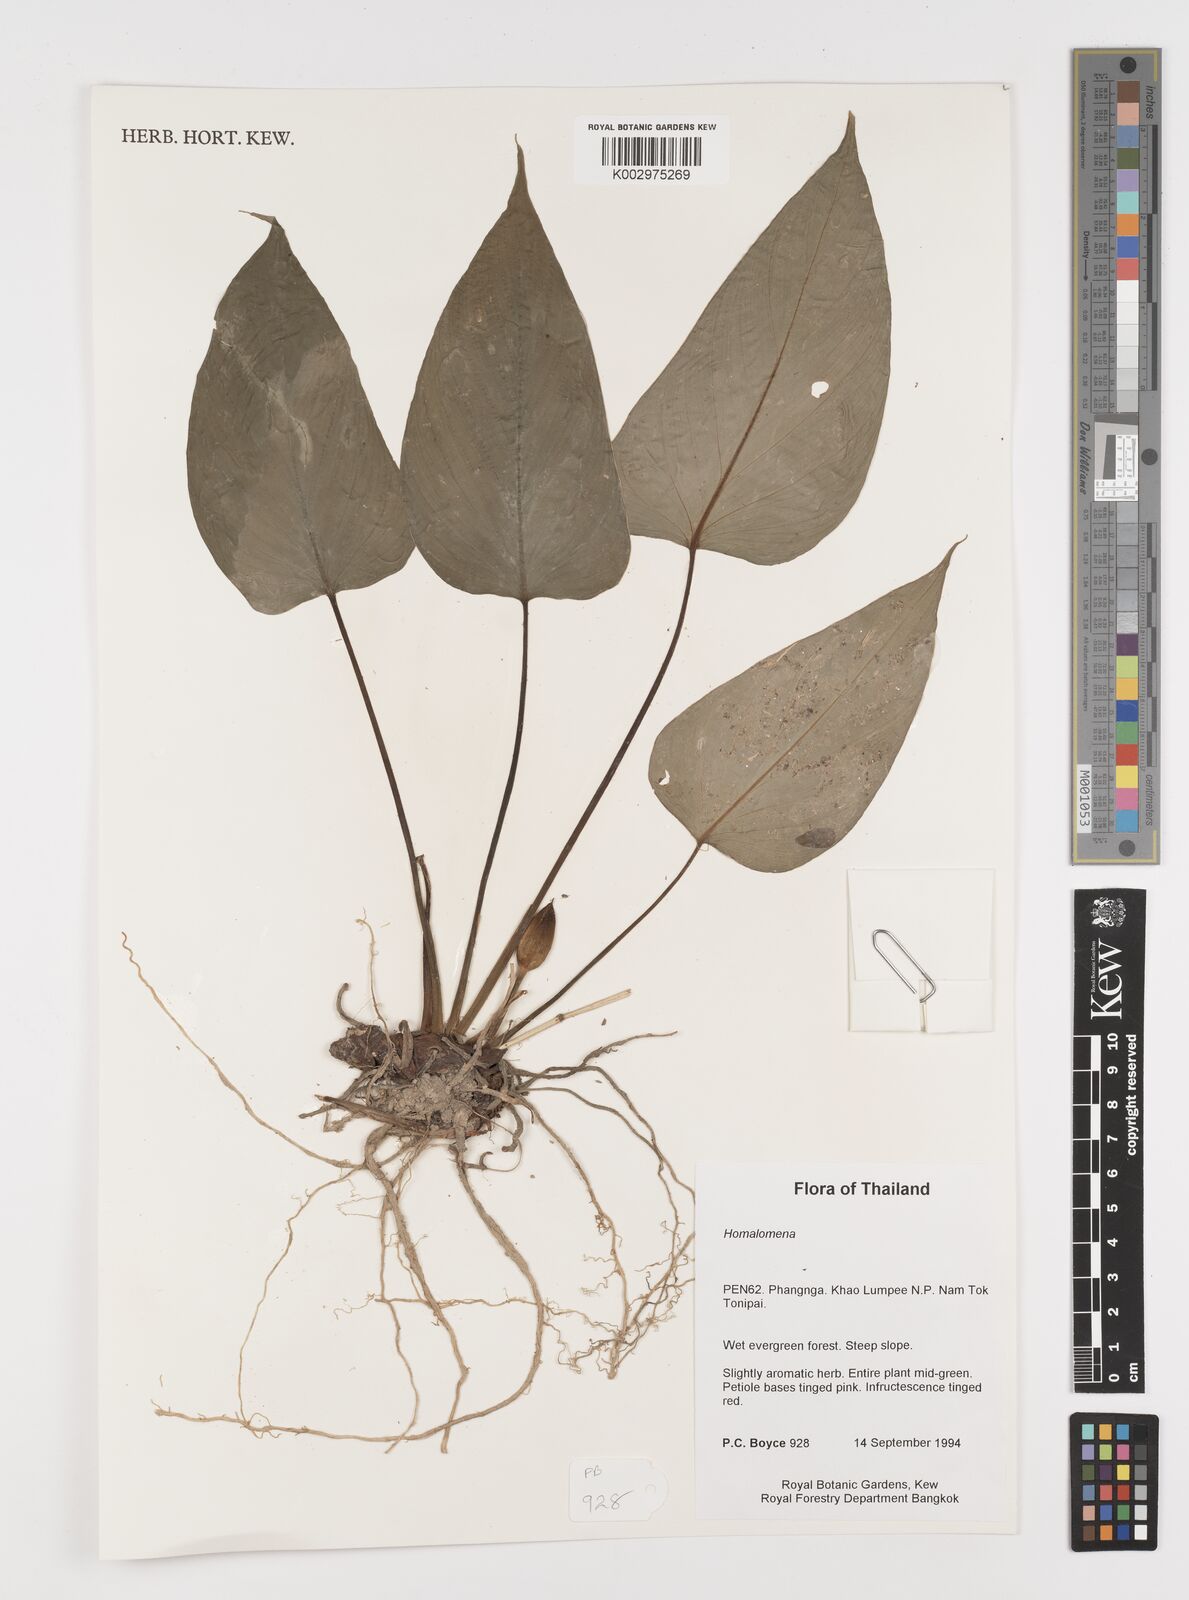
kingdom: Plantae
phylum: Tracheophyta
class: Liliopsida
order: Alismatales
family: Araceae
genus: Homalomena
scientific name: Homalomena
